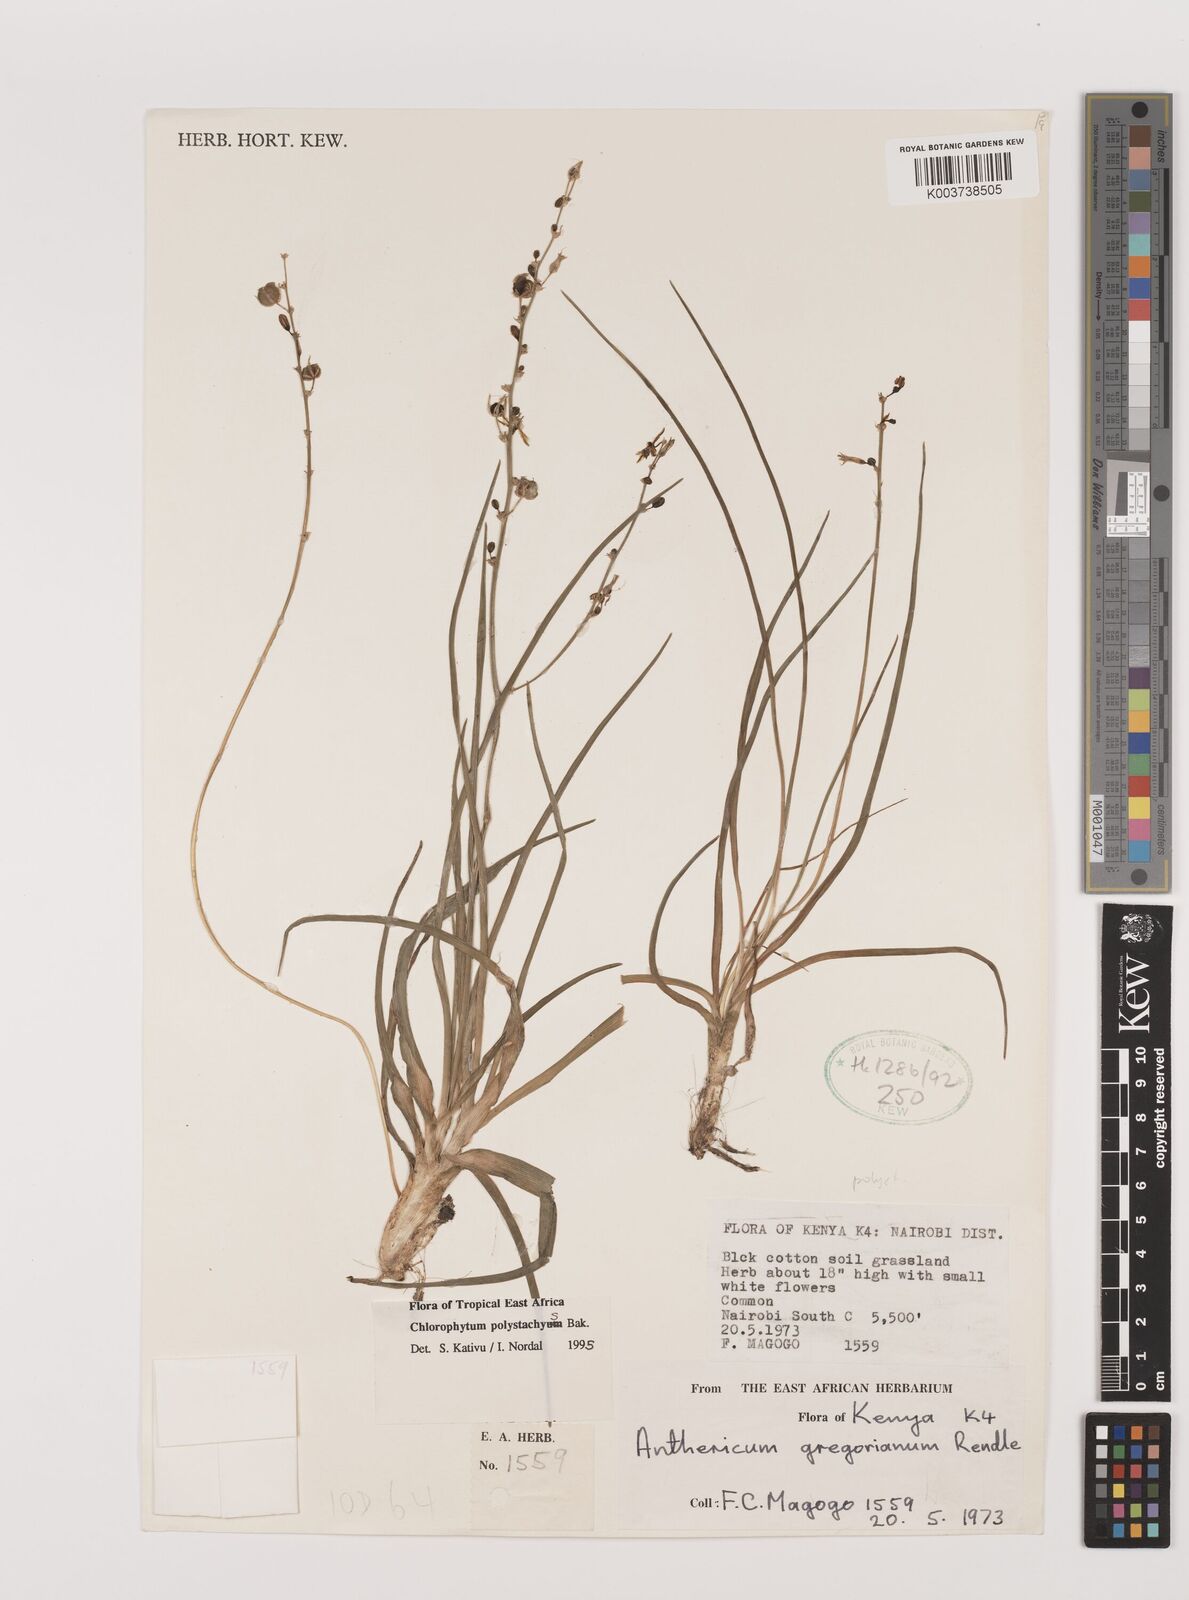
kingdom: Plantae
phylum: Tracheophyta
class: Liliopsida
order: Asparagales
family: Asparagaceae
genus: Chlorophytum
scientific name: Chlorophytum polystachys
